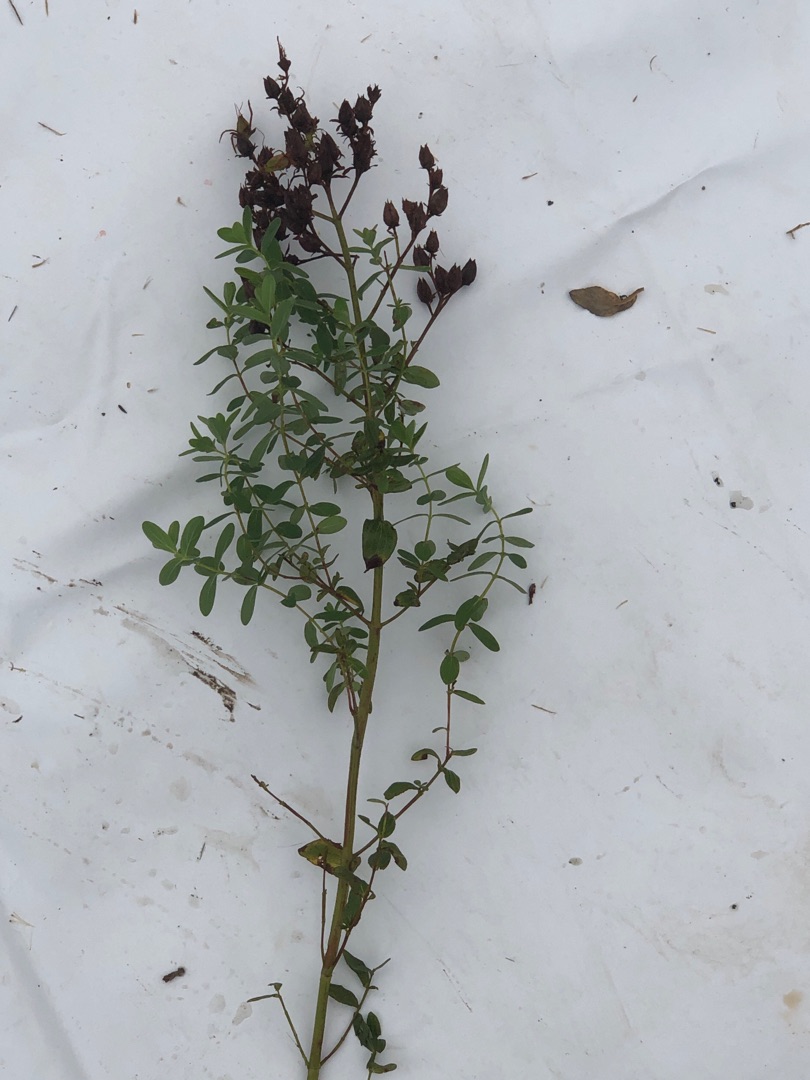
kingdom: Plantae
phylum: Tracheophyta
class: Magnoliopsida
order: Malpighiales
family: Hypericaceae
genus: Hypericum
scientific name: Hypericum perforatum
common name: Prikbladet perikon
